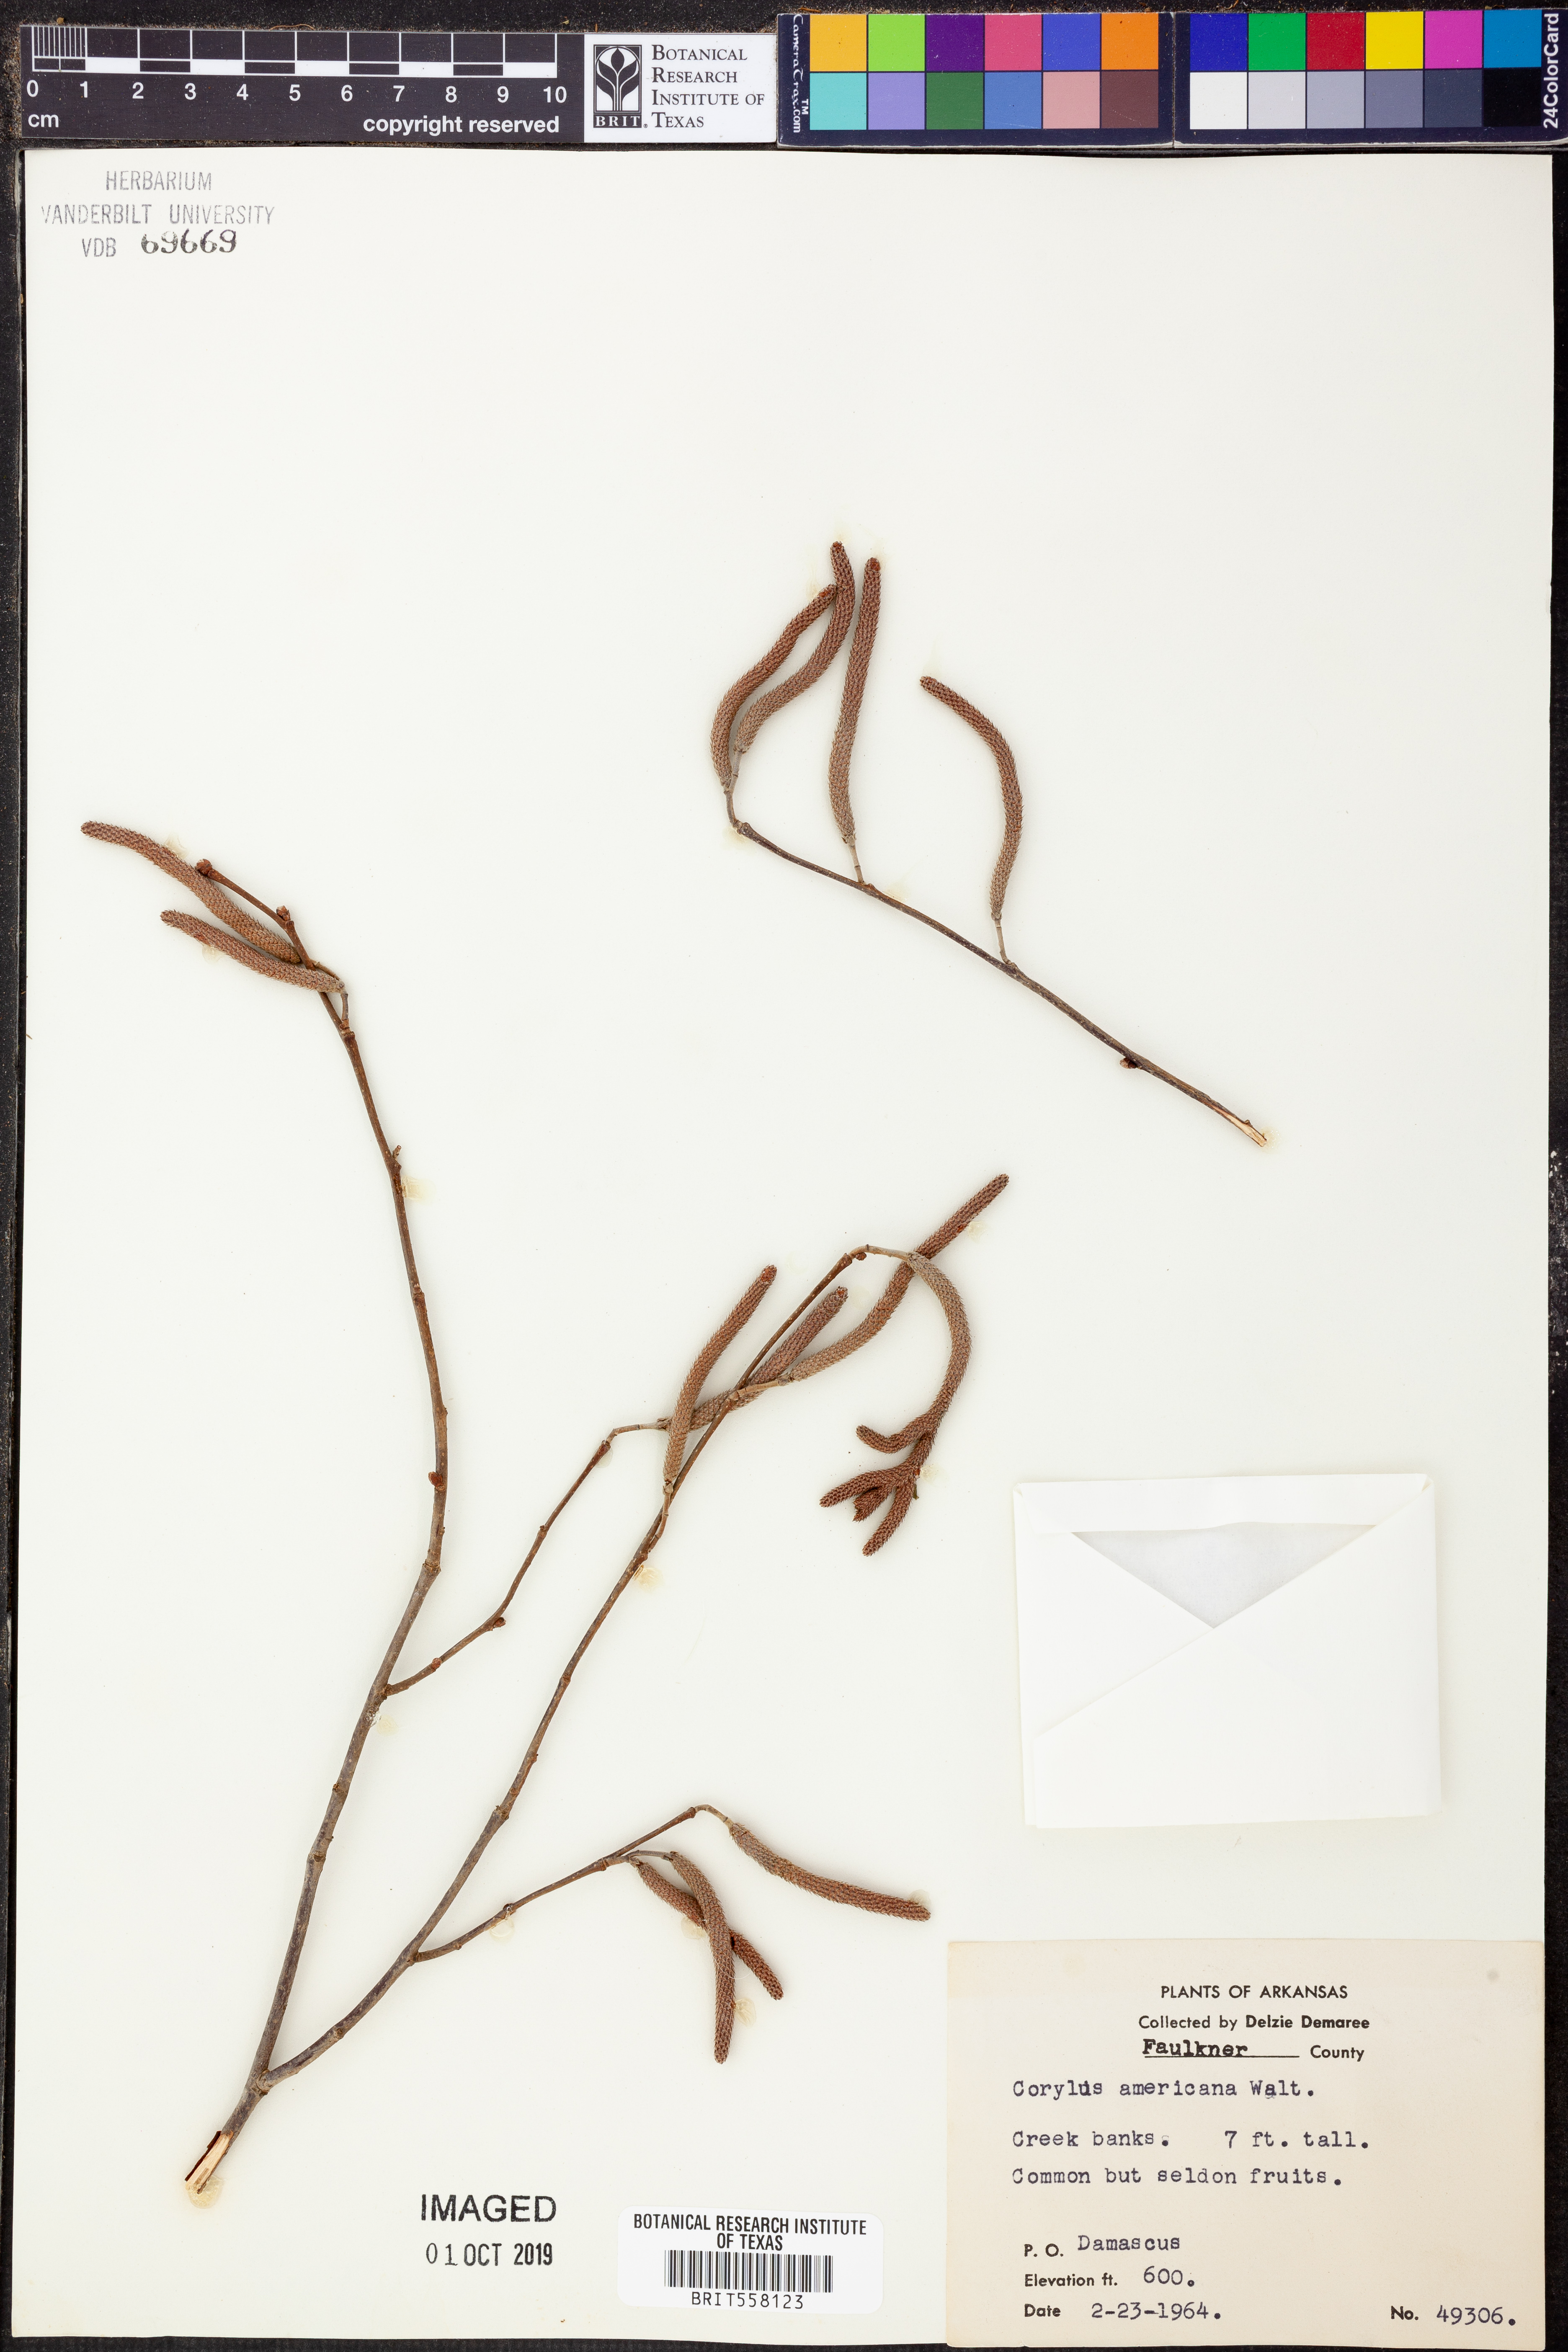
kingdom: Plantae
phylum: Tracheophyta
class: Magnoliopsida
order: Fagales
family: Betulaceae
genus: Corylus
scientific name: Corylus americana
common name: American hazel
